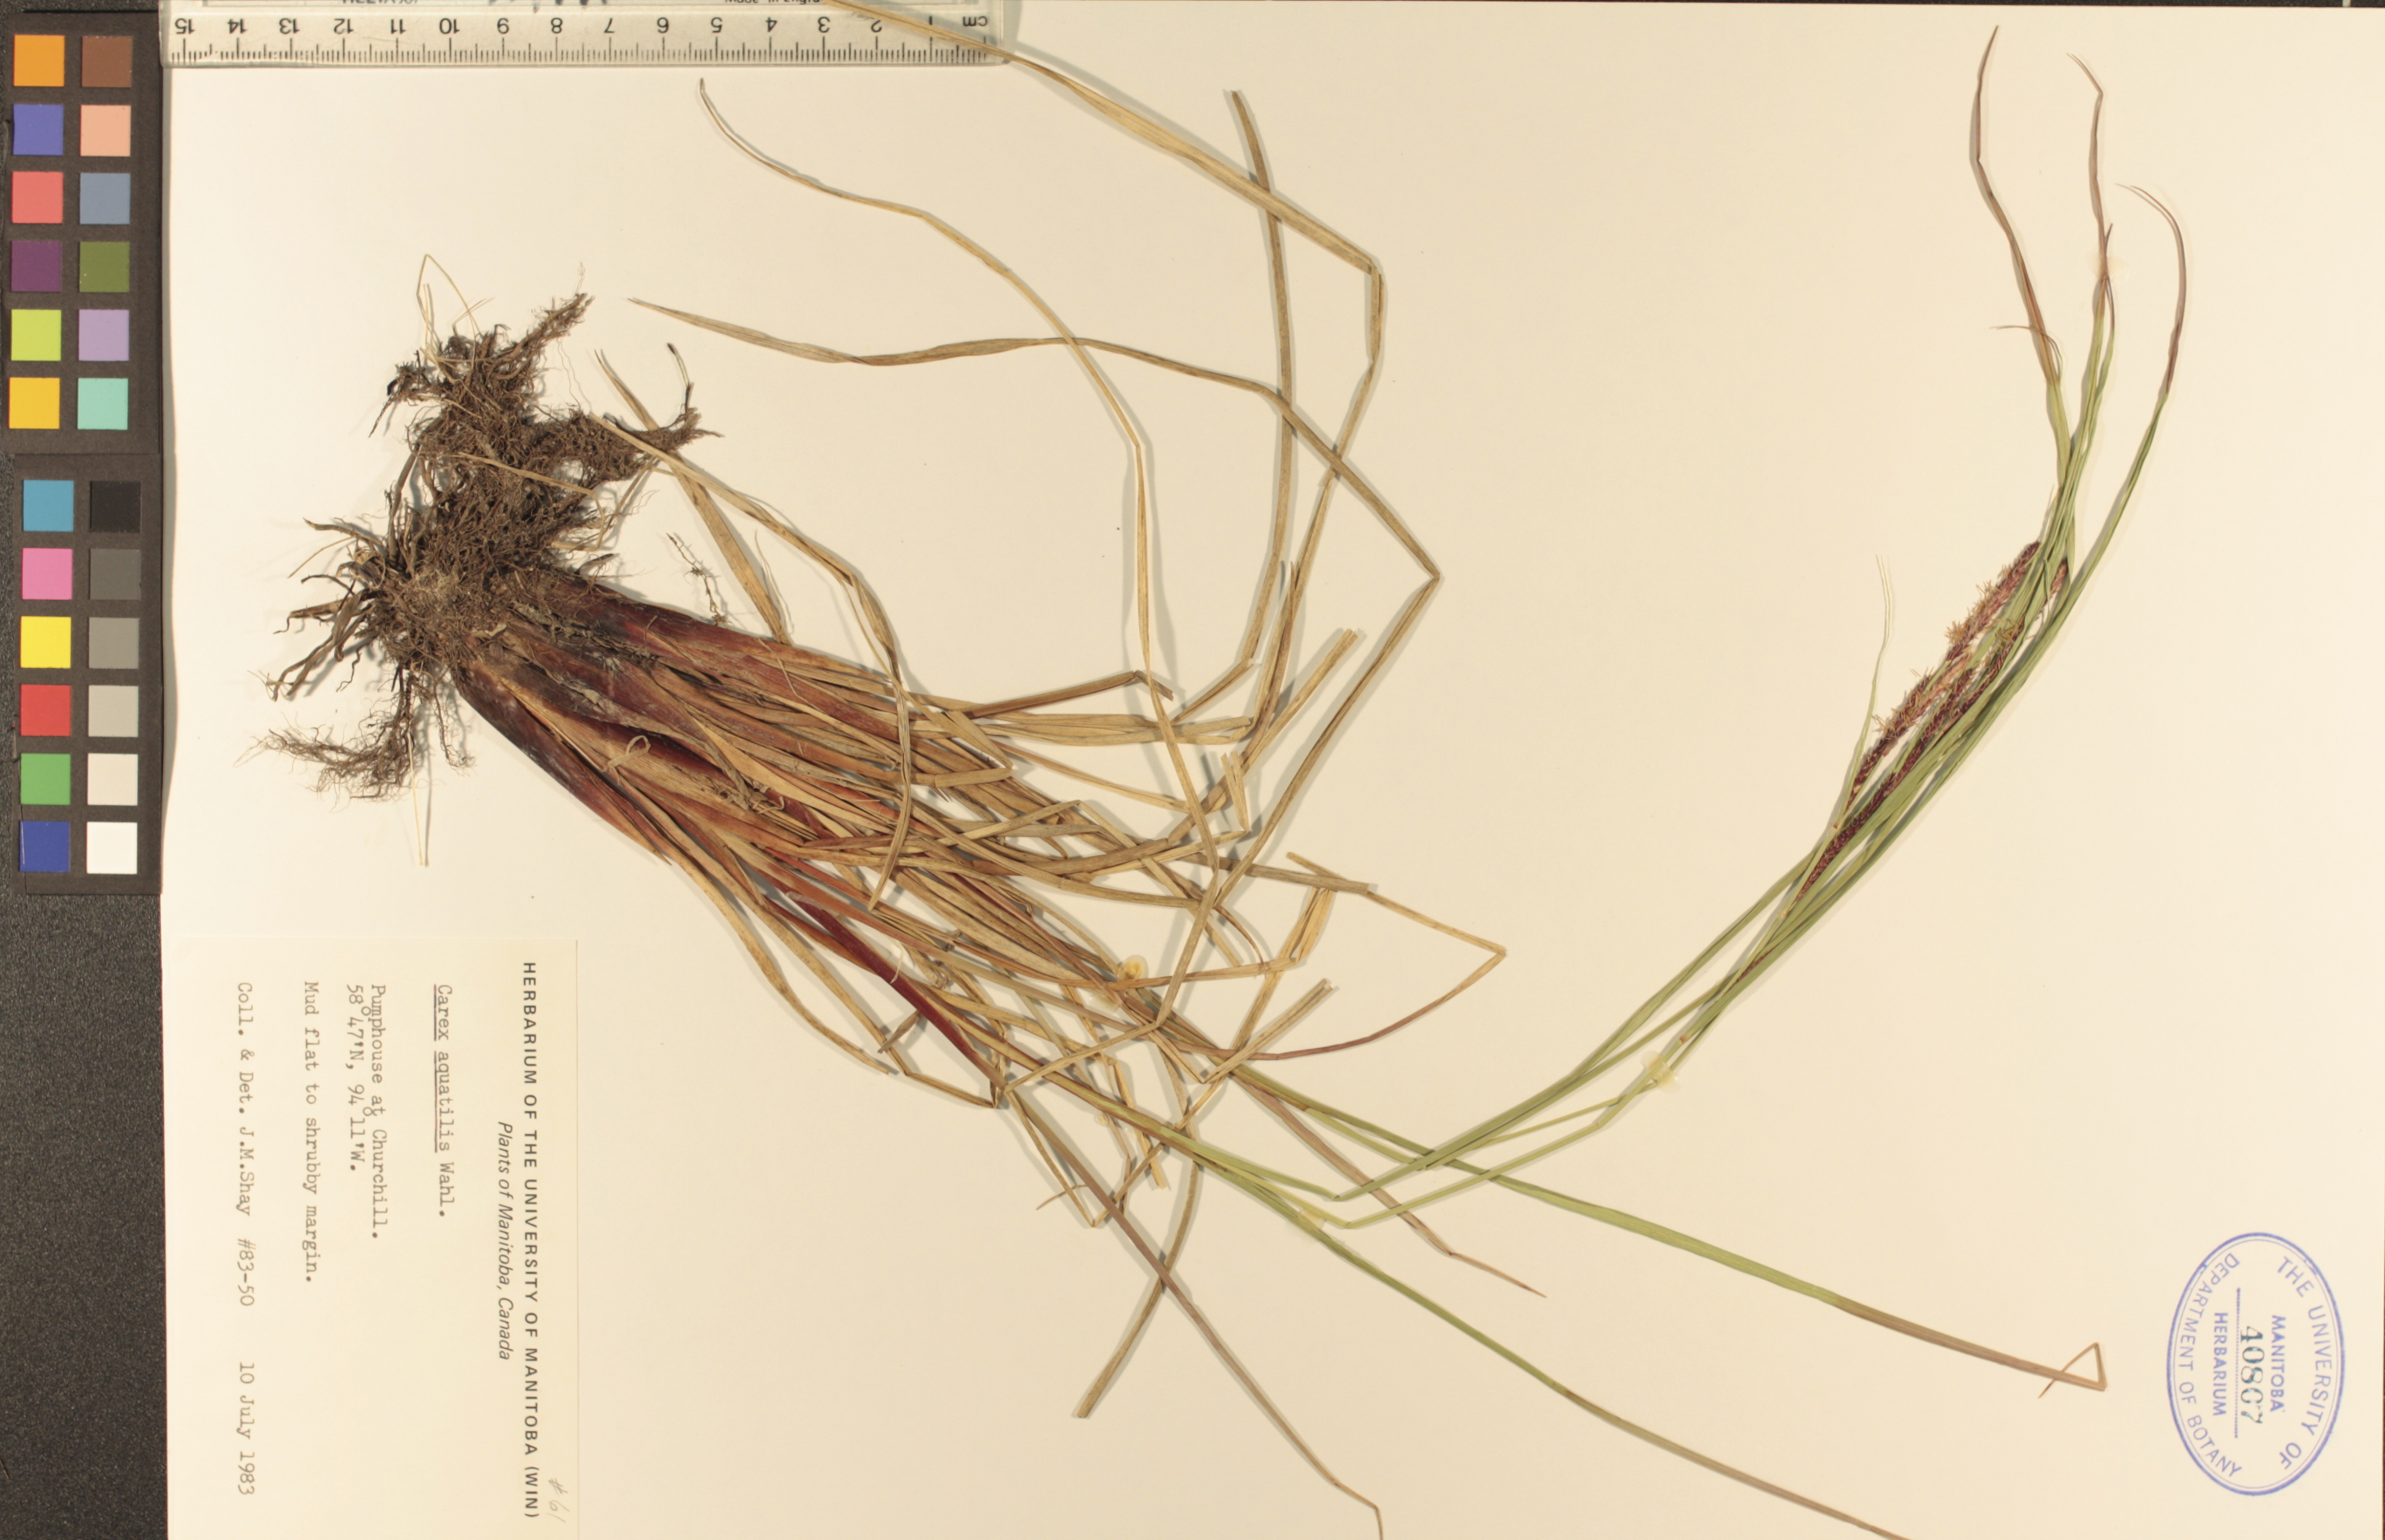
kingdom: Plantae
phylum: Tracheophyta
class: Liliopsida
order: Poales
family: Cyperaceae
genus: Carex
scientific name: Carex aquatilis
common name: Water sedge
